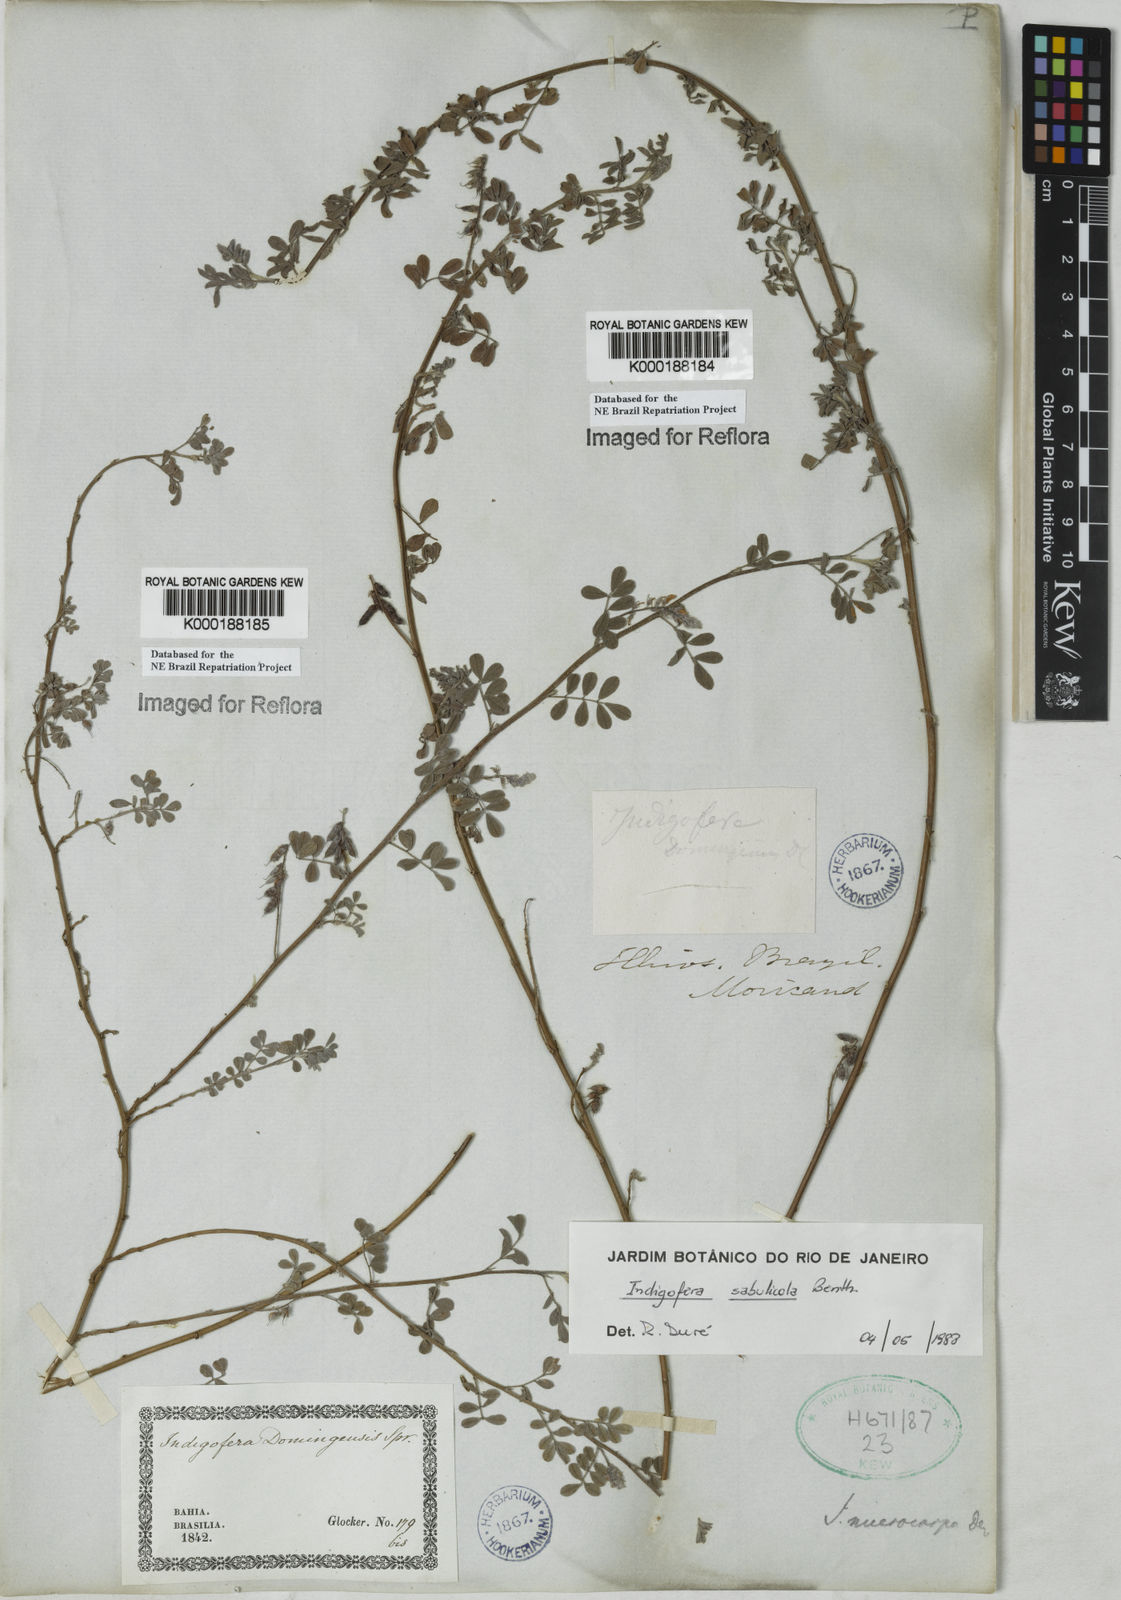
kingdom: Plantae
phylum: Tracheophyta
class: Magnoliopsida
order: Fabales
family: Fabaceae
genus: Indigofera
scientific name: Indigofera microcarpa
